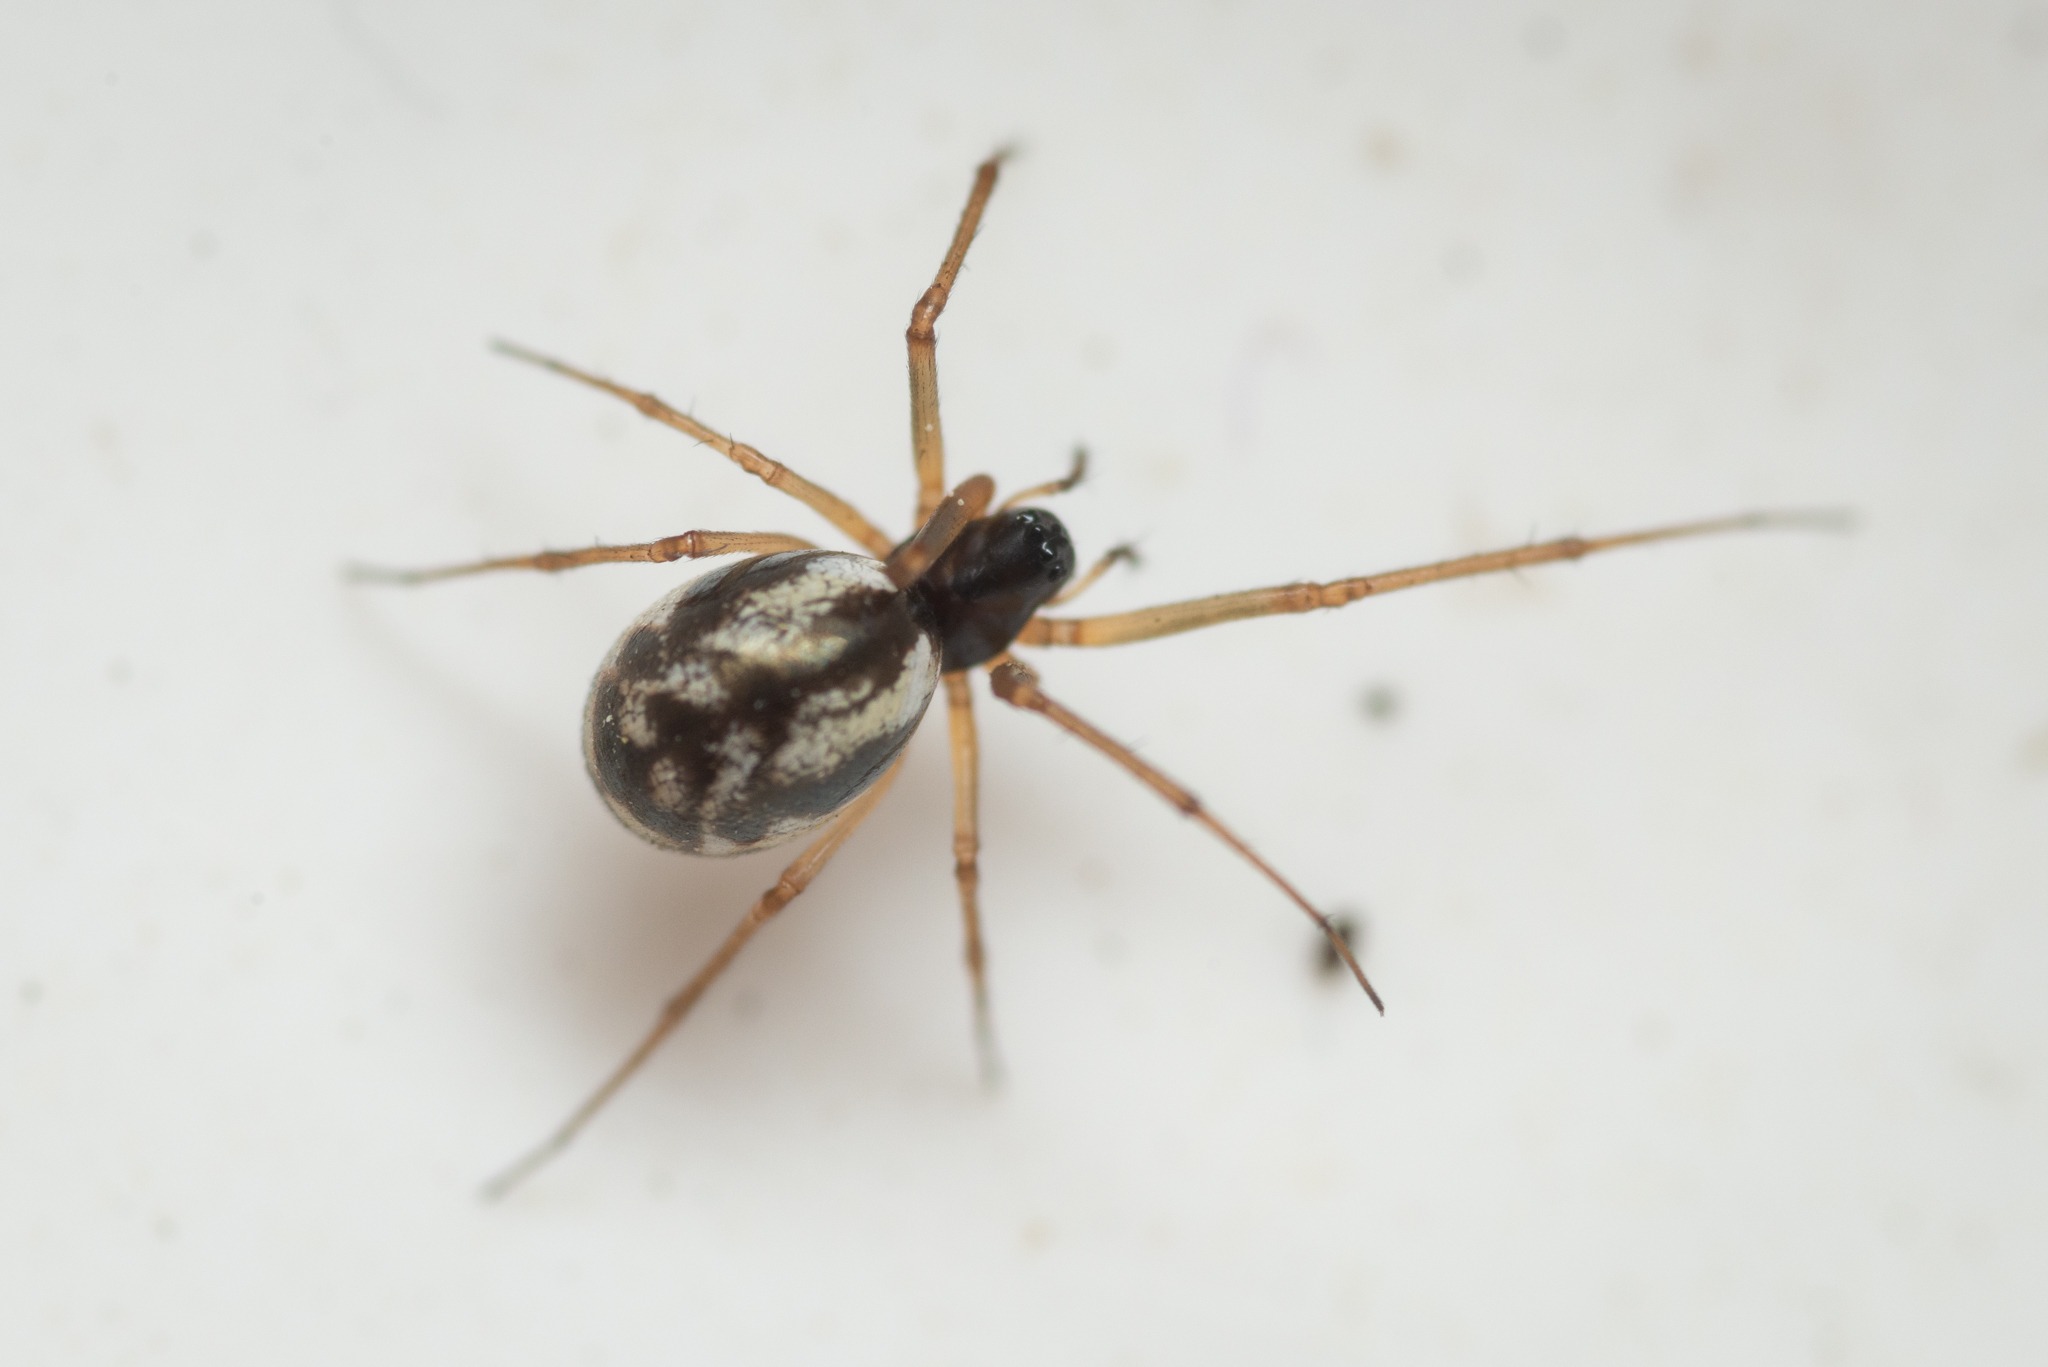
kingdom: Animalia
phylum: Arthropoda
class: Arachnida
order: Araneae
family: Linyphiidae
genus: Microlinyphia
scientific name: Microlinyphia pusilla
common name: Glinsende baldakinspinder
